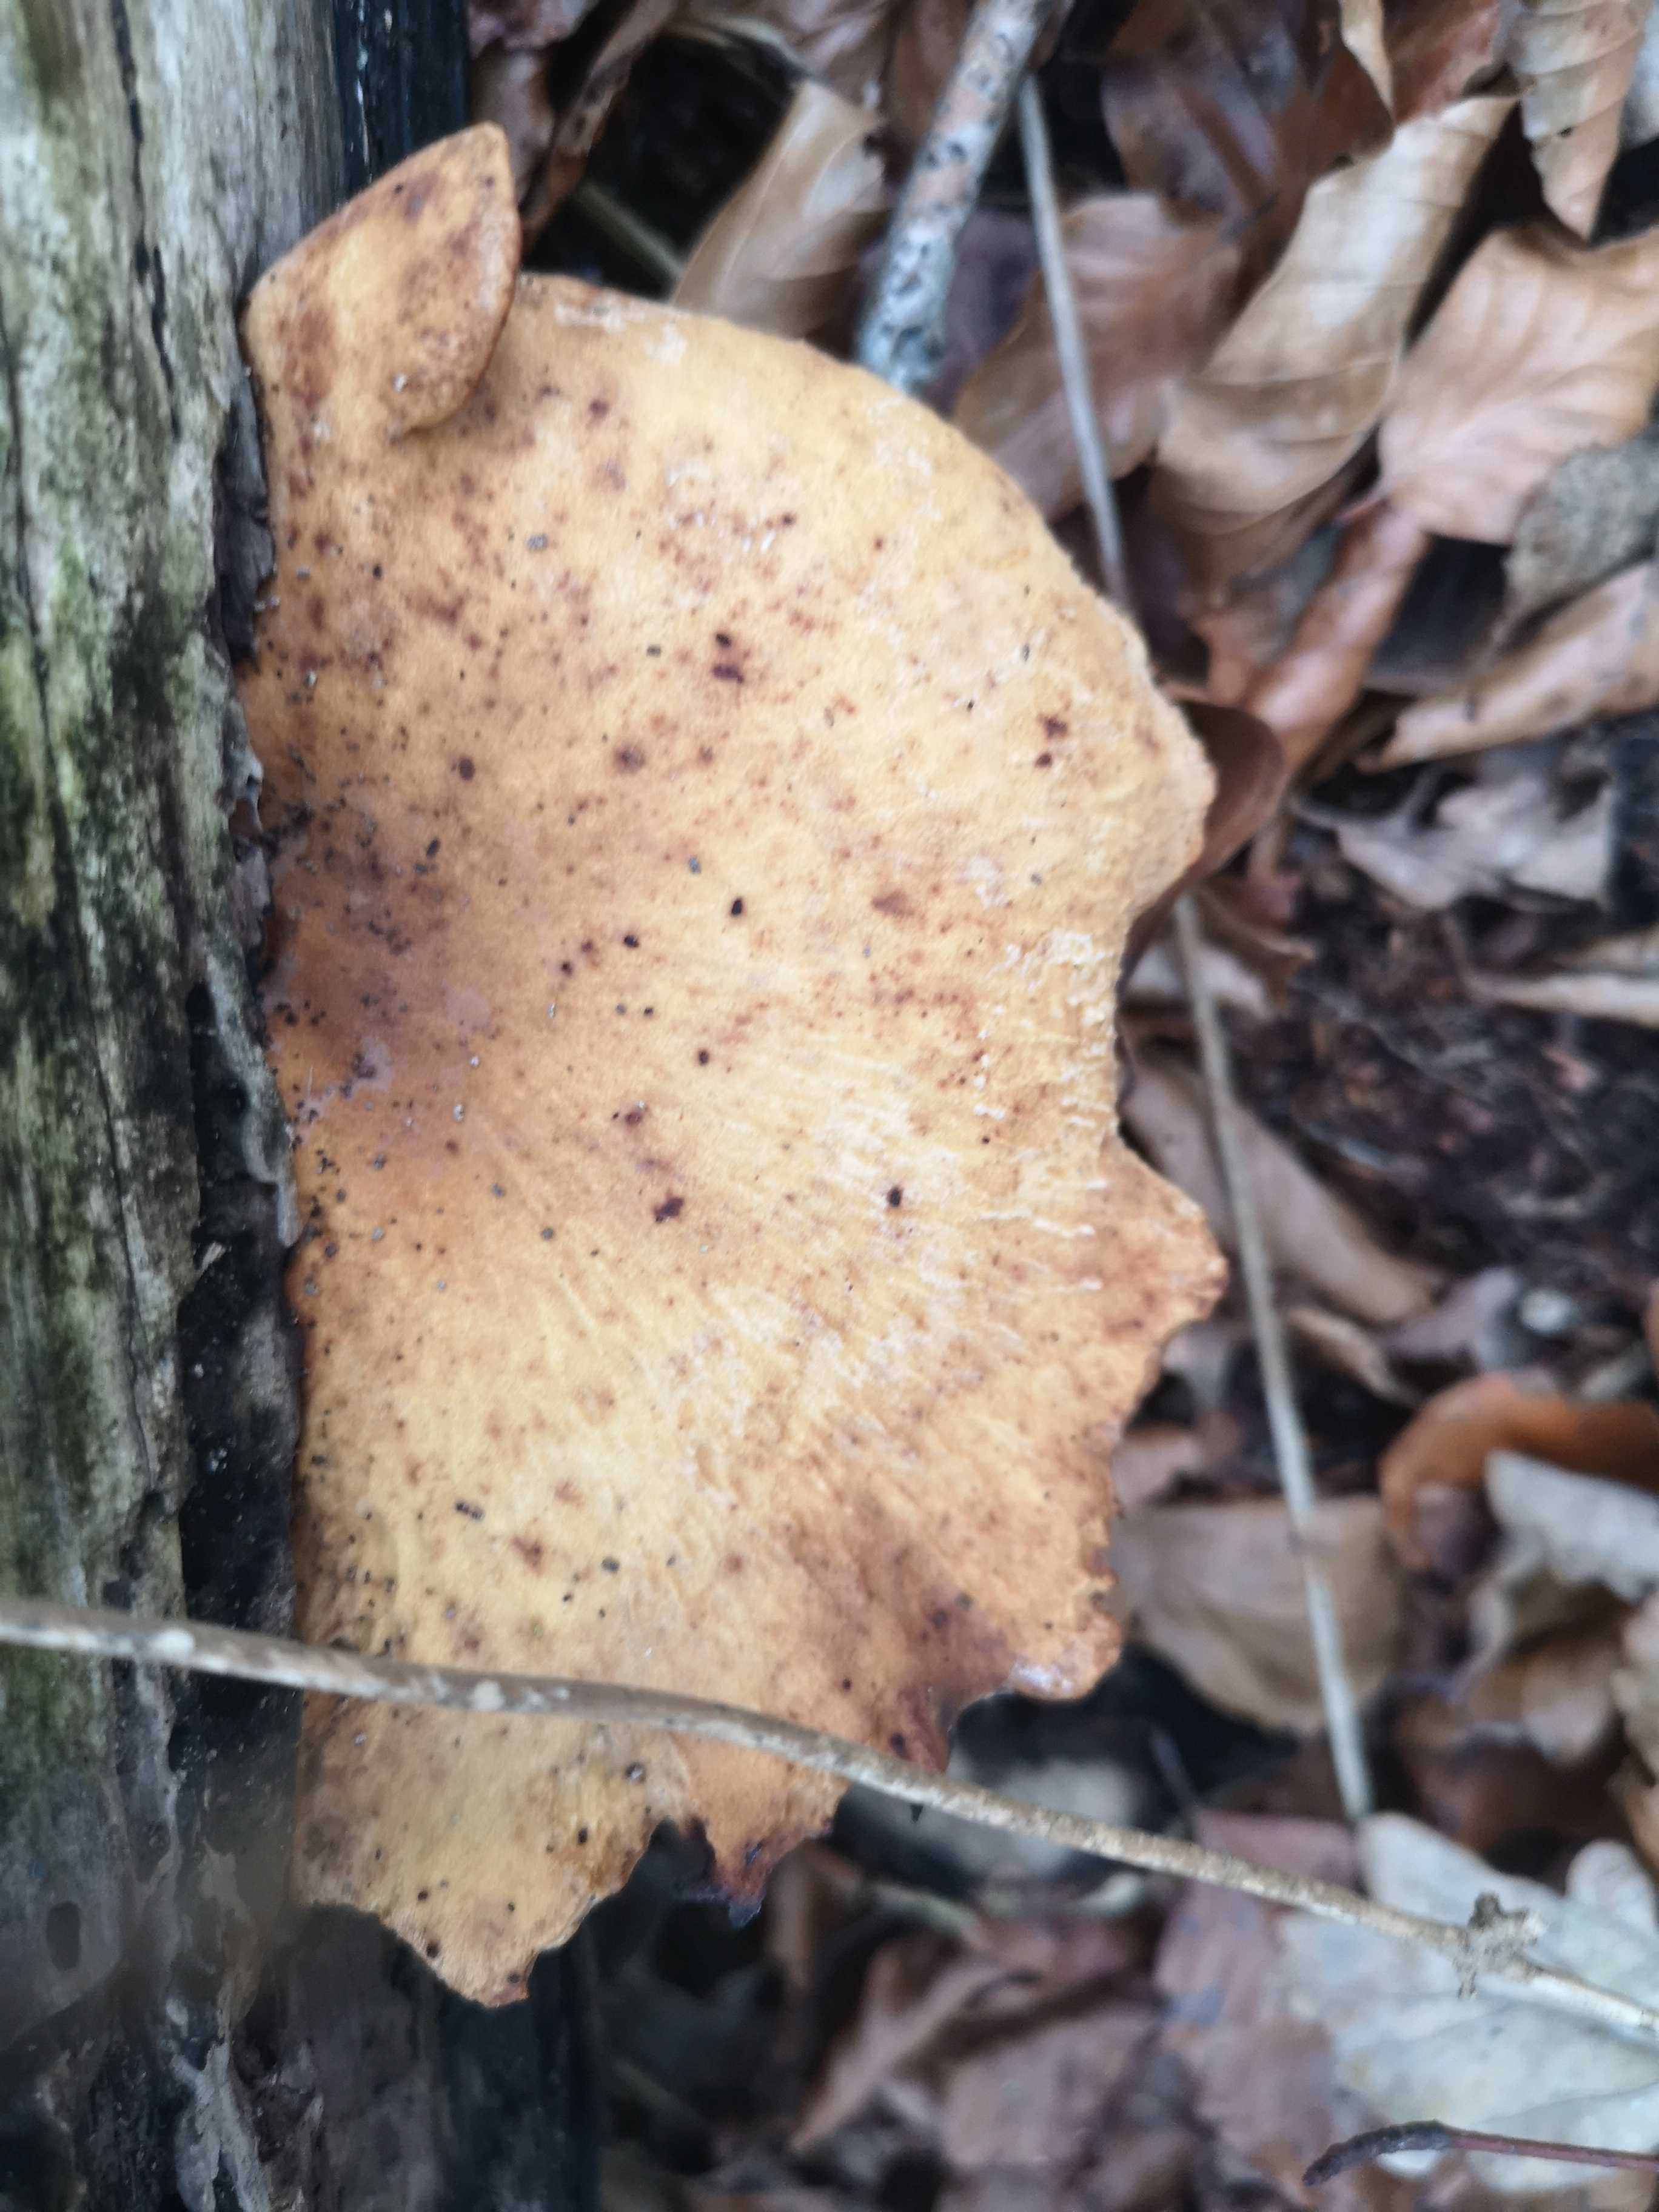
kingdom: Fungi
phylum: Basidiomycota
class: Agaricomycetes
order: Polyporales
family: Polyporaceae
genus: Cerioporus
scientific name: Cerioporus varius
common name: foranderlig stilkporesvamp
